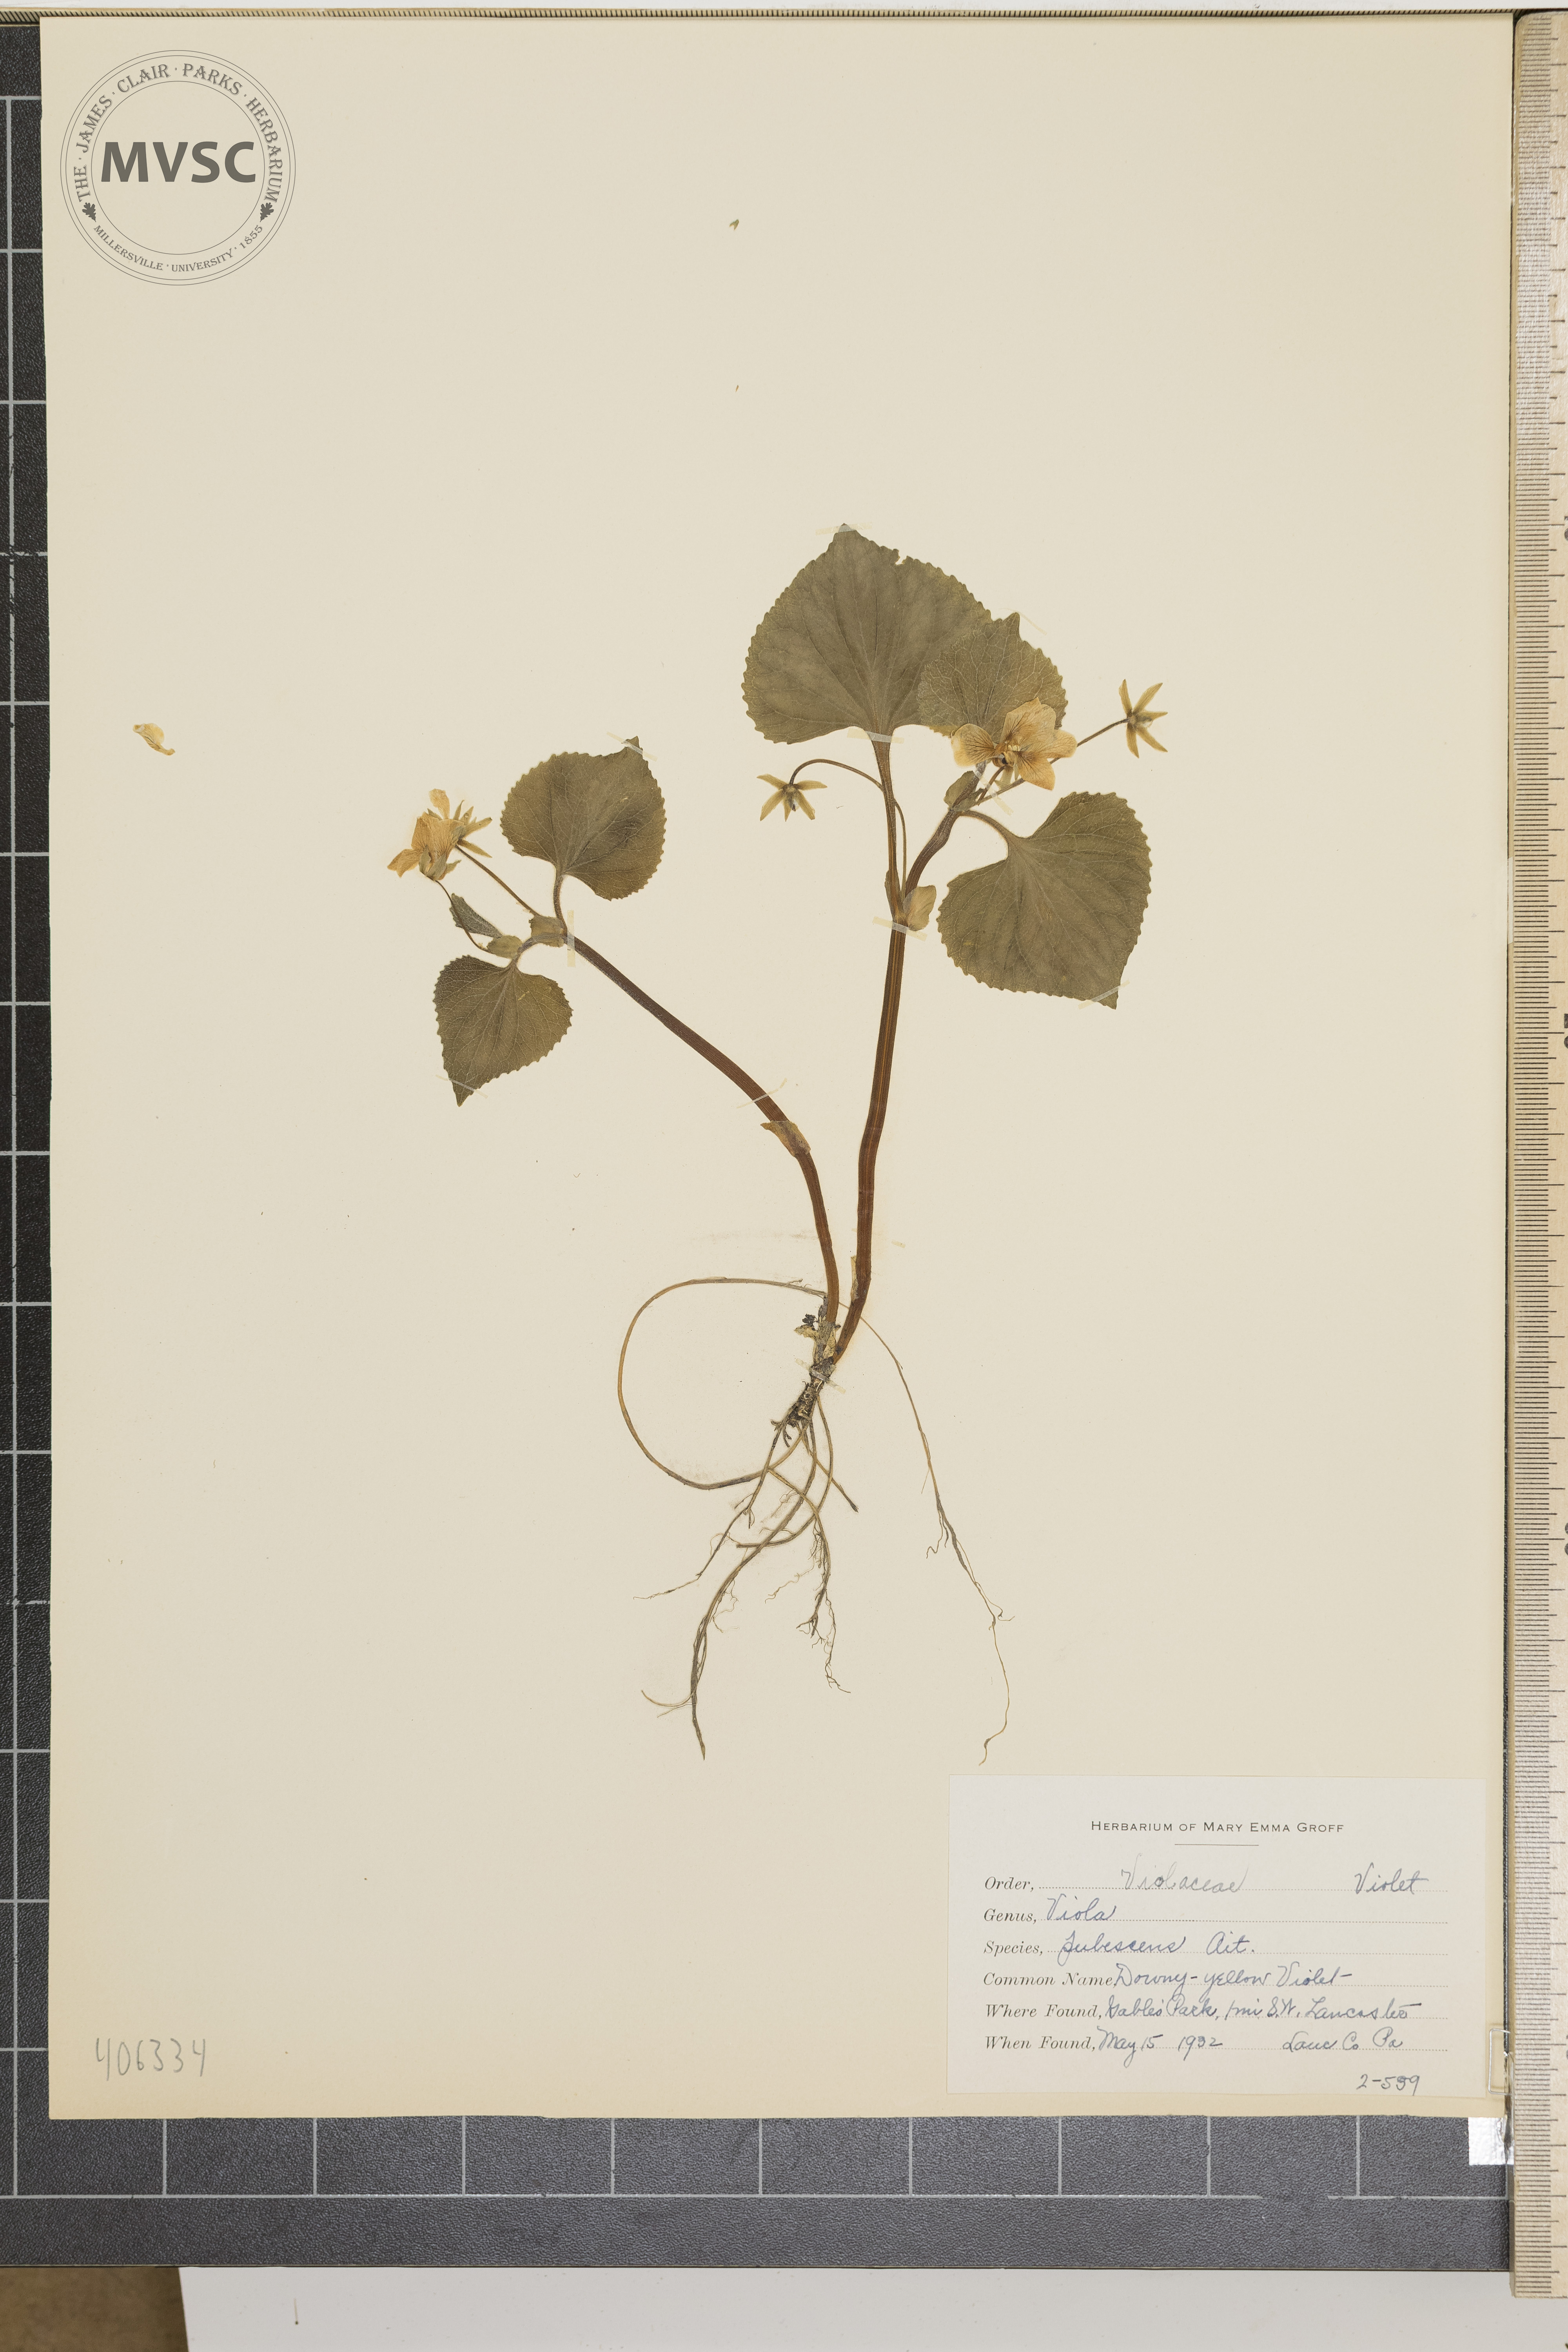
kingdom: Plantae
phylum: Tracheophyta
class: Magnoliopsida
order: Malpighiales
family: Violaceae
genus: Viola
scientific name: Viola pubescens
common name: Downy-yellow Violet
